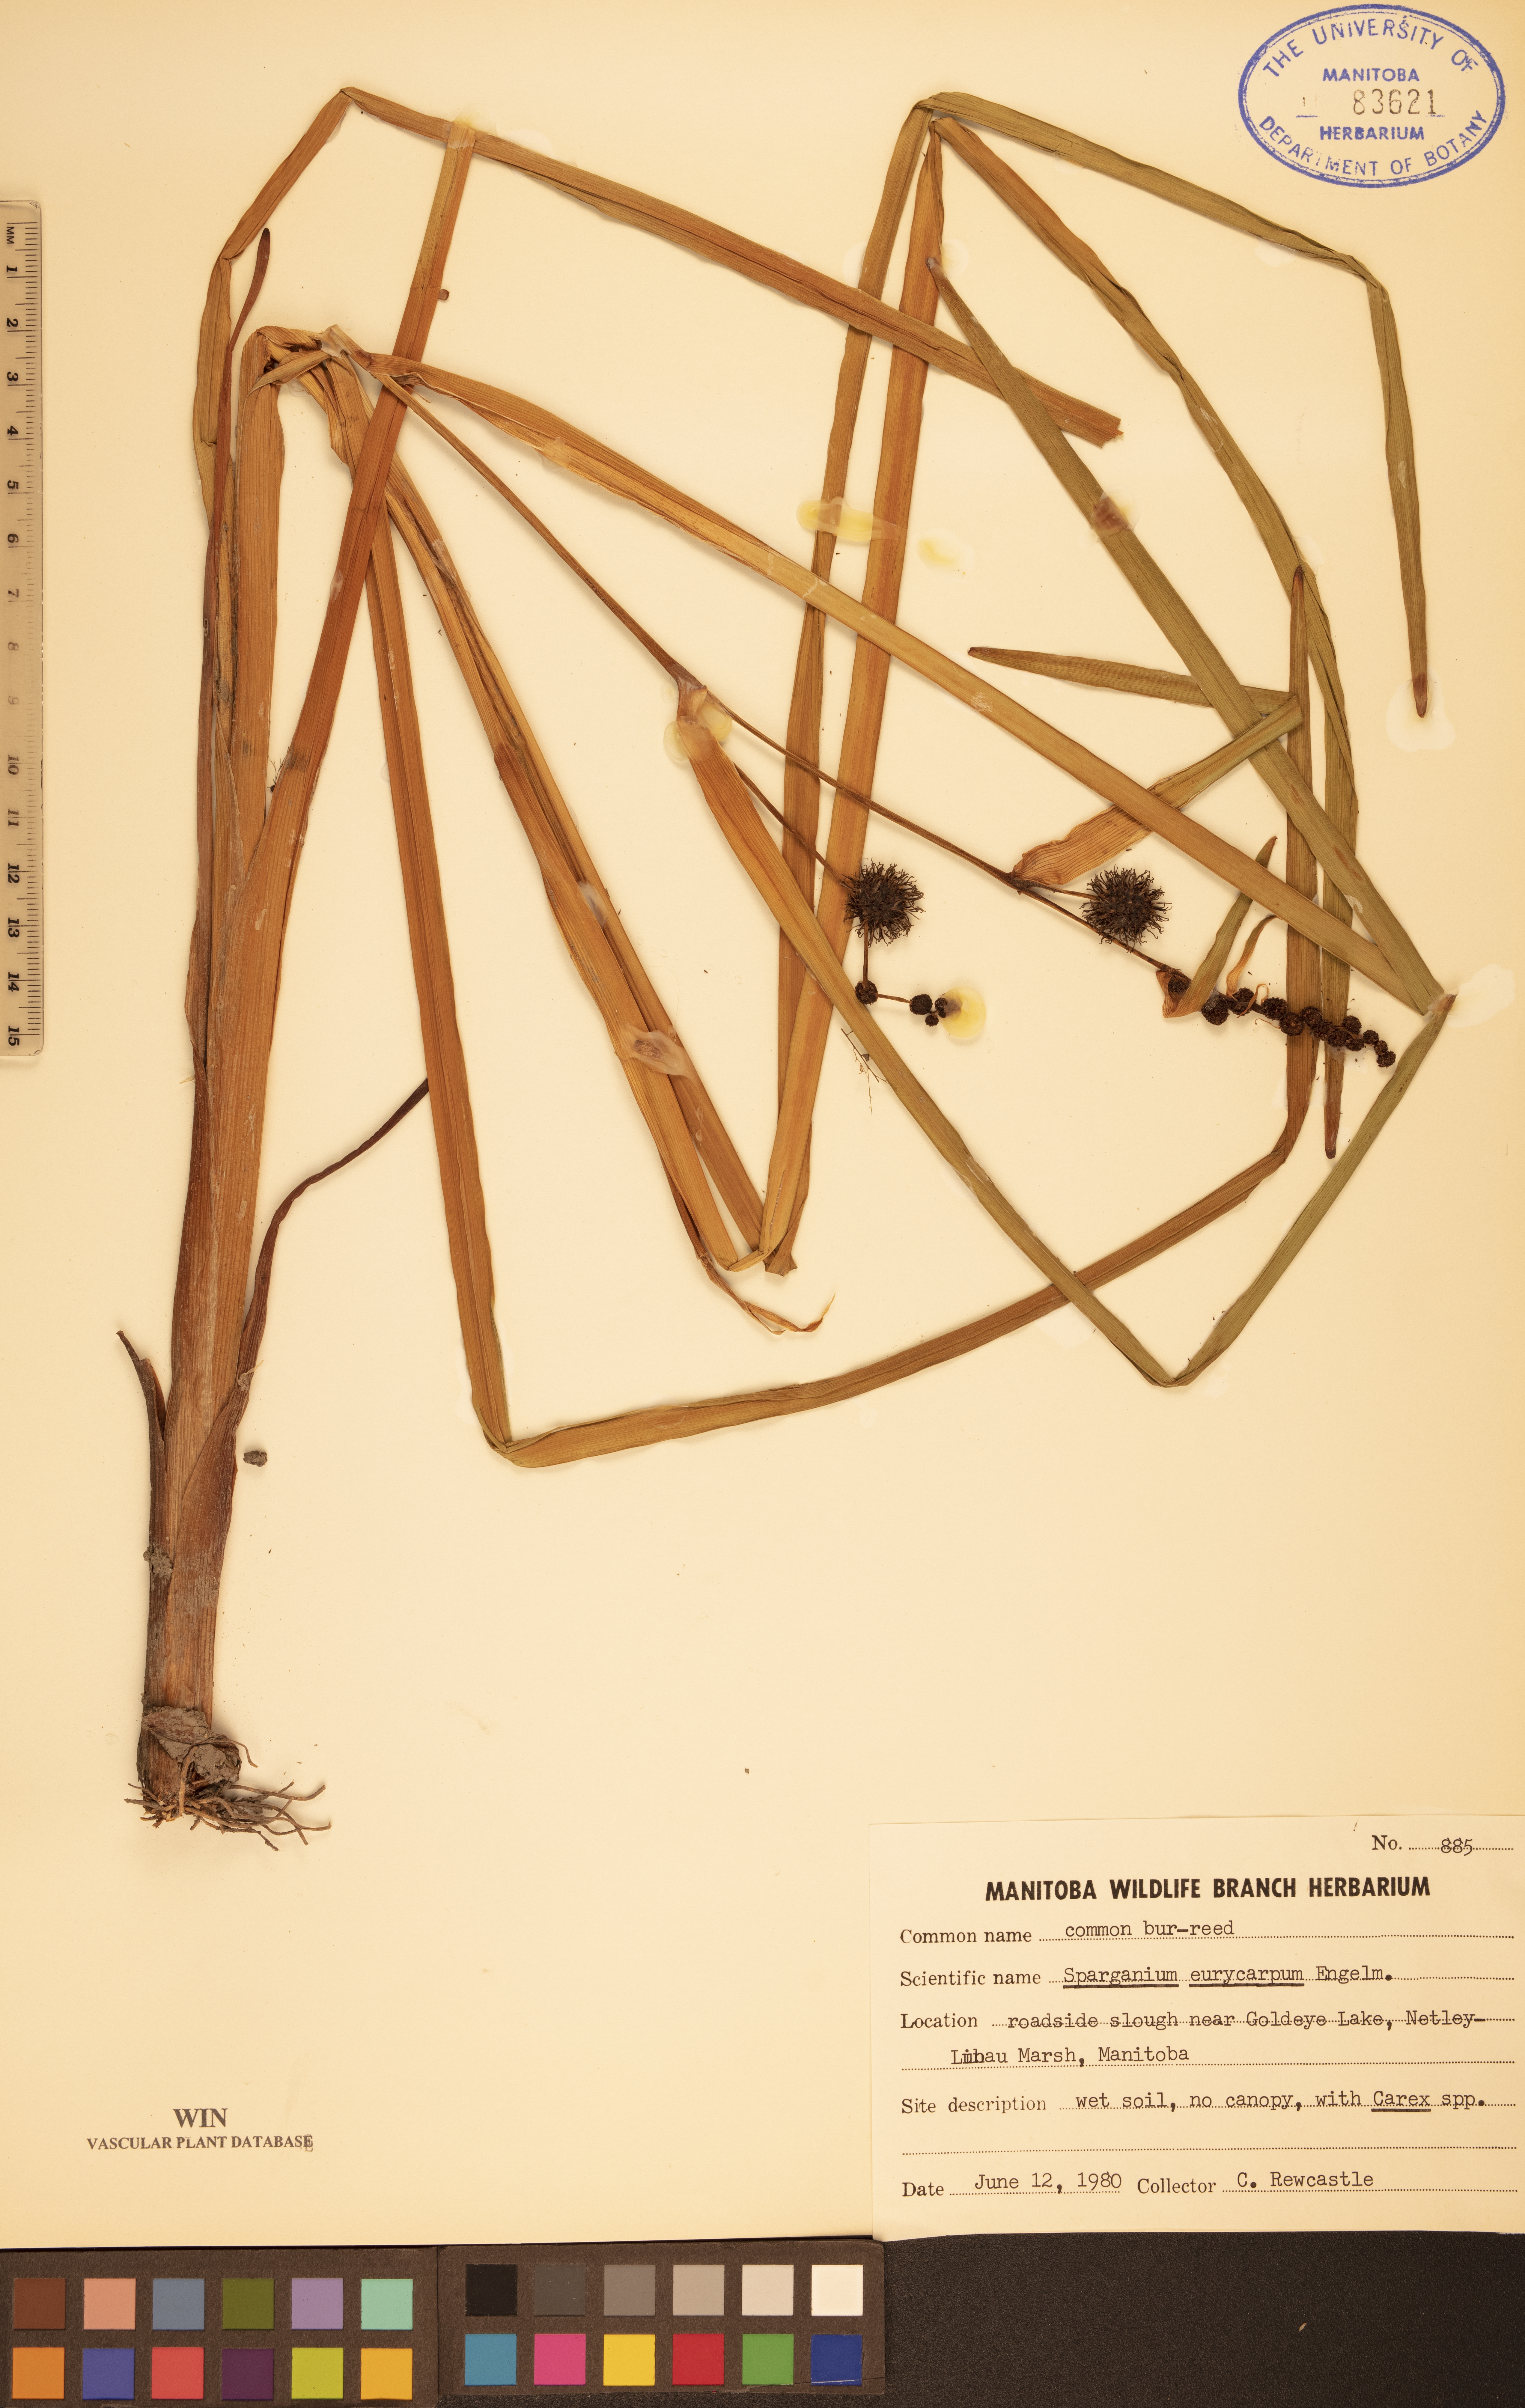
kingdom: Plantae
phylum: Tracheophyta
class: Liliopsida
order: Poales
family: Typhaceae
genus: Sparganium
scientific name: Sparganium eurycarpum
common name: Broad-fruited burreed
